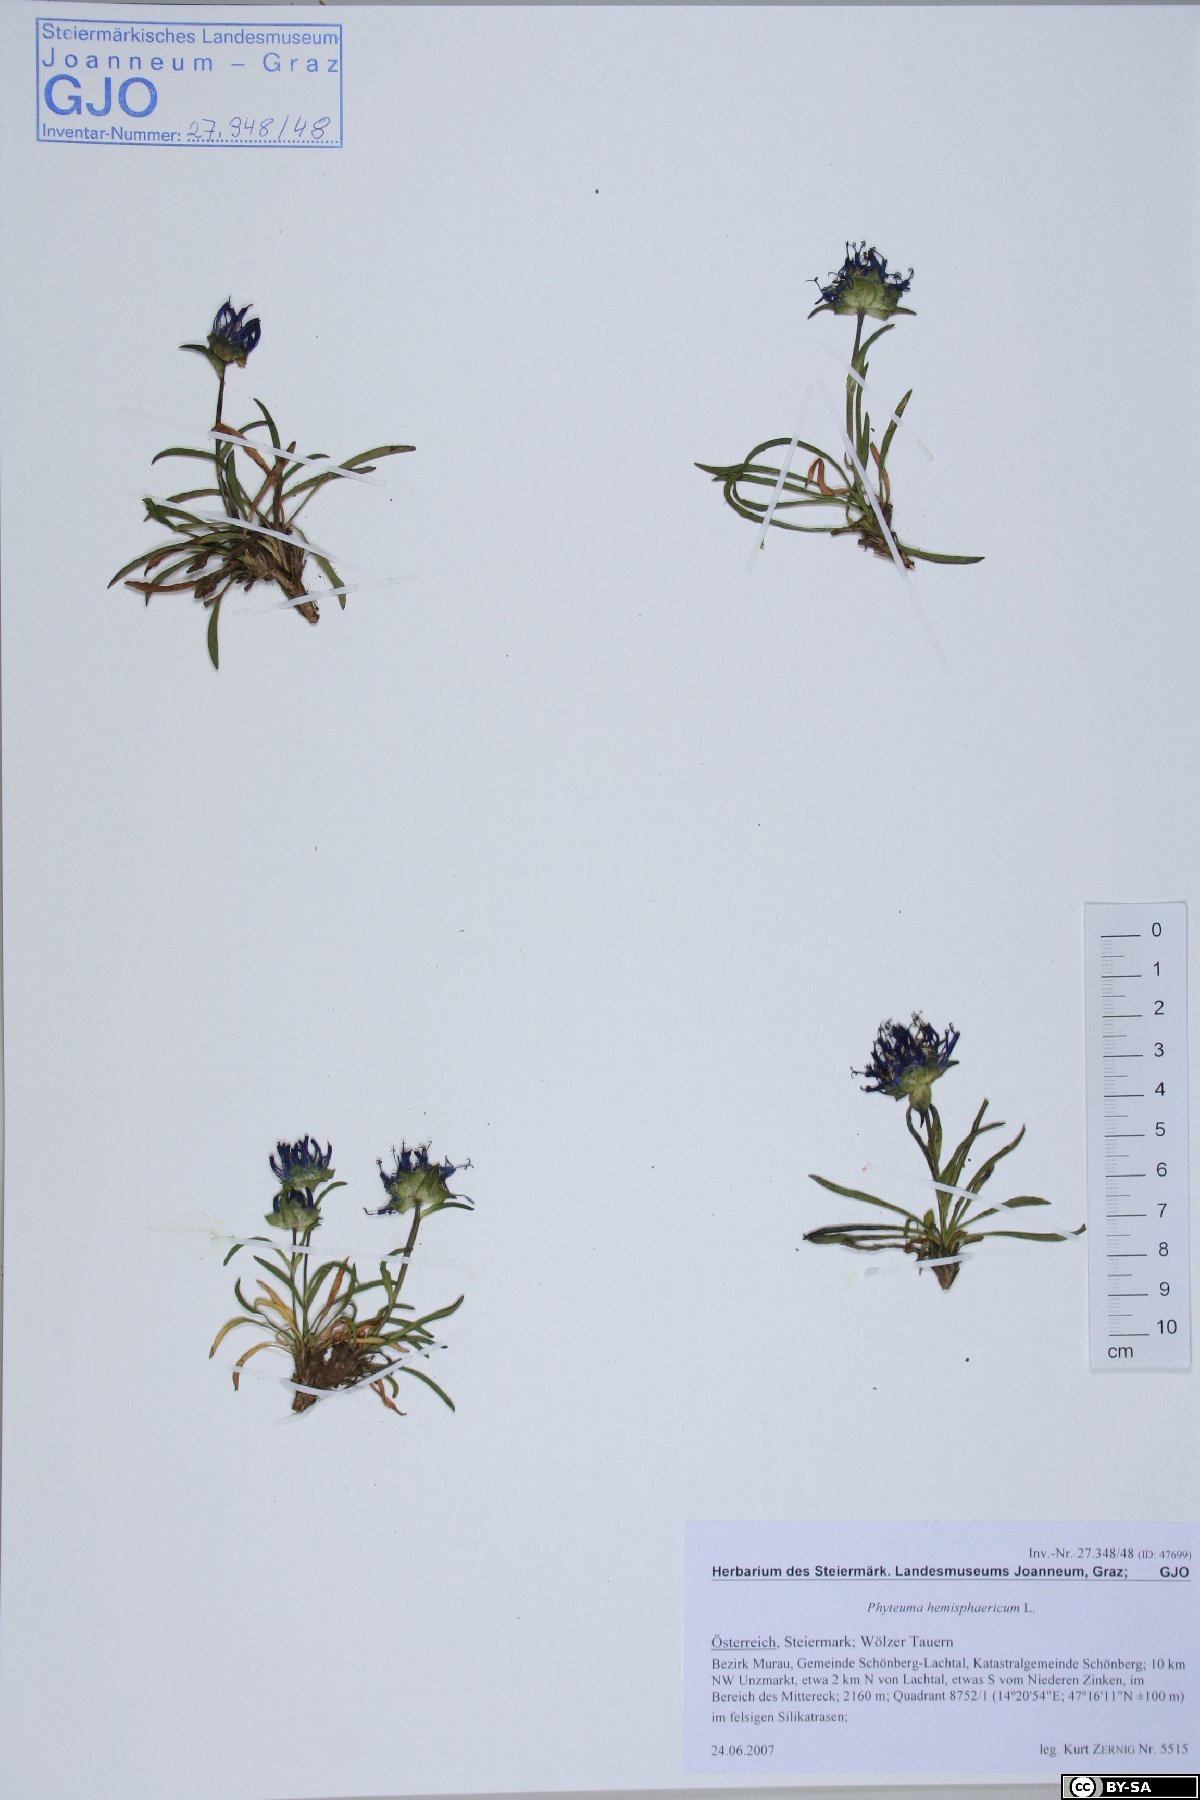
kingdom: Plantae
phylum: Tracheophyta
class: Magnoliopsida
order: Asterales
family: Campanulaceae
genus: Phyteuma
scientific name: Phyteuma confusum
